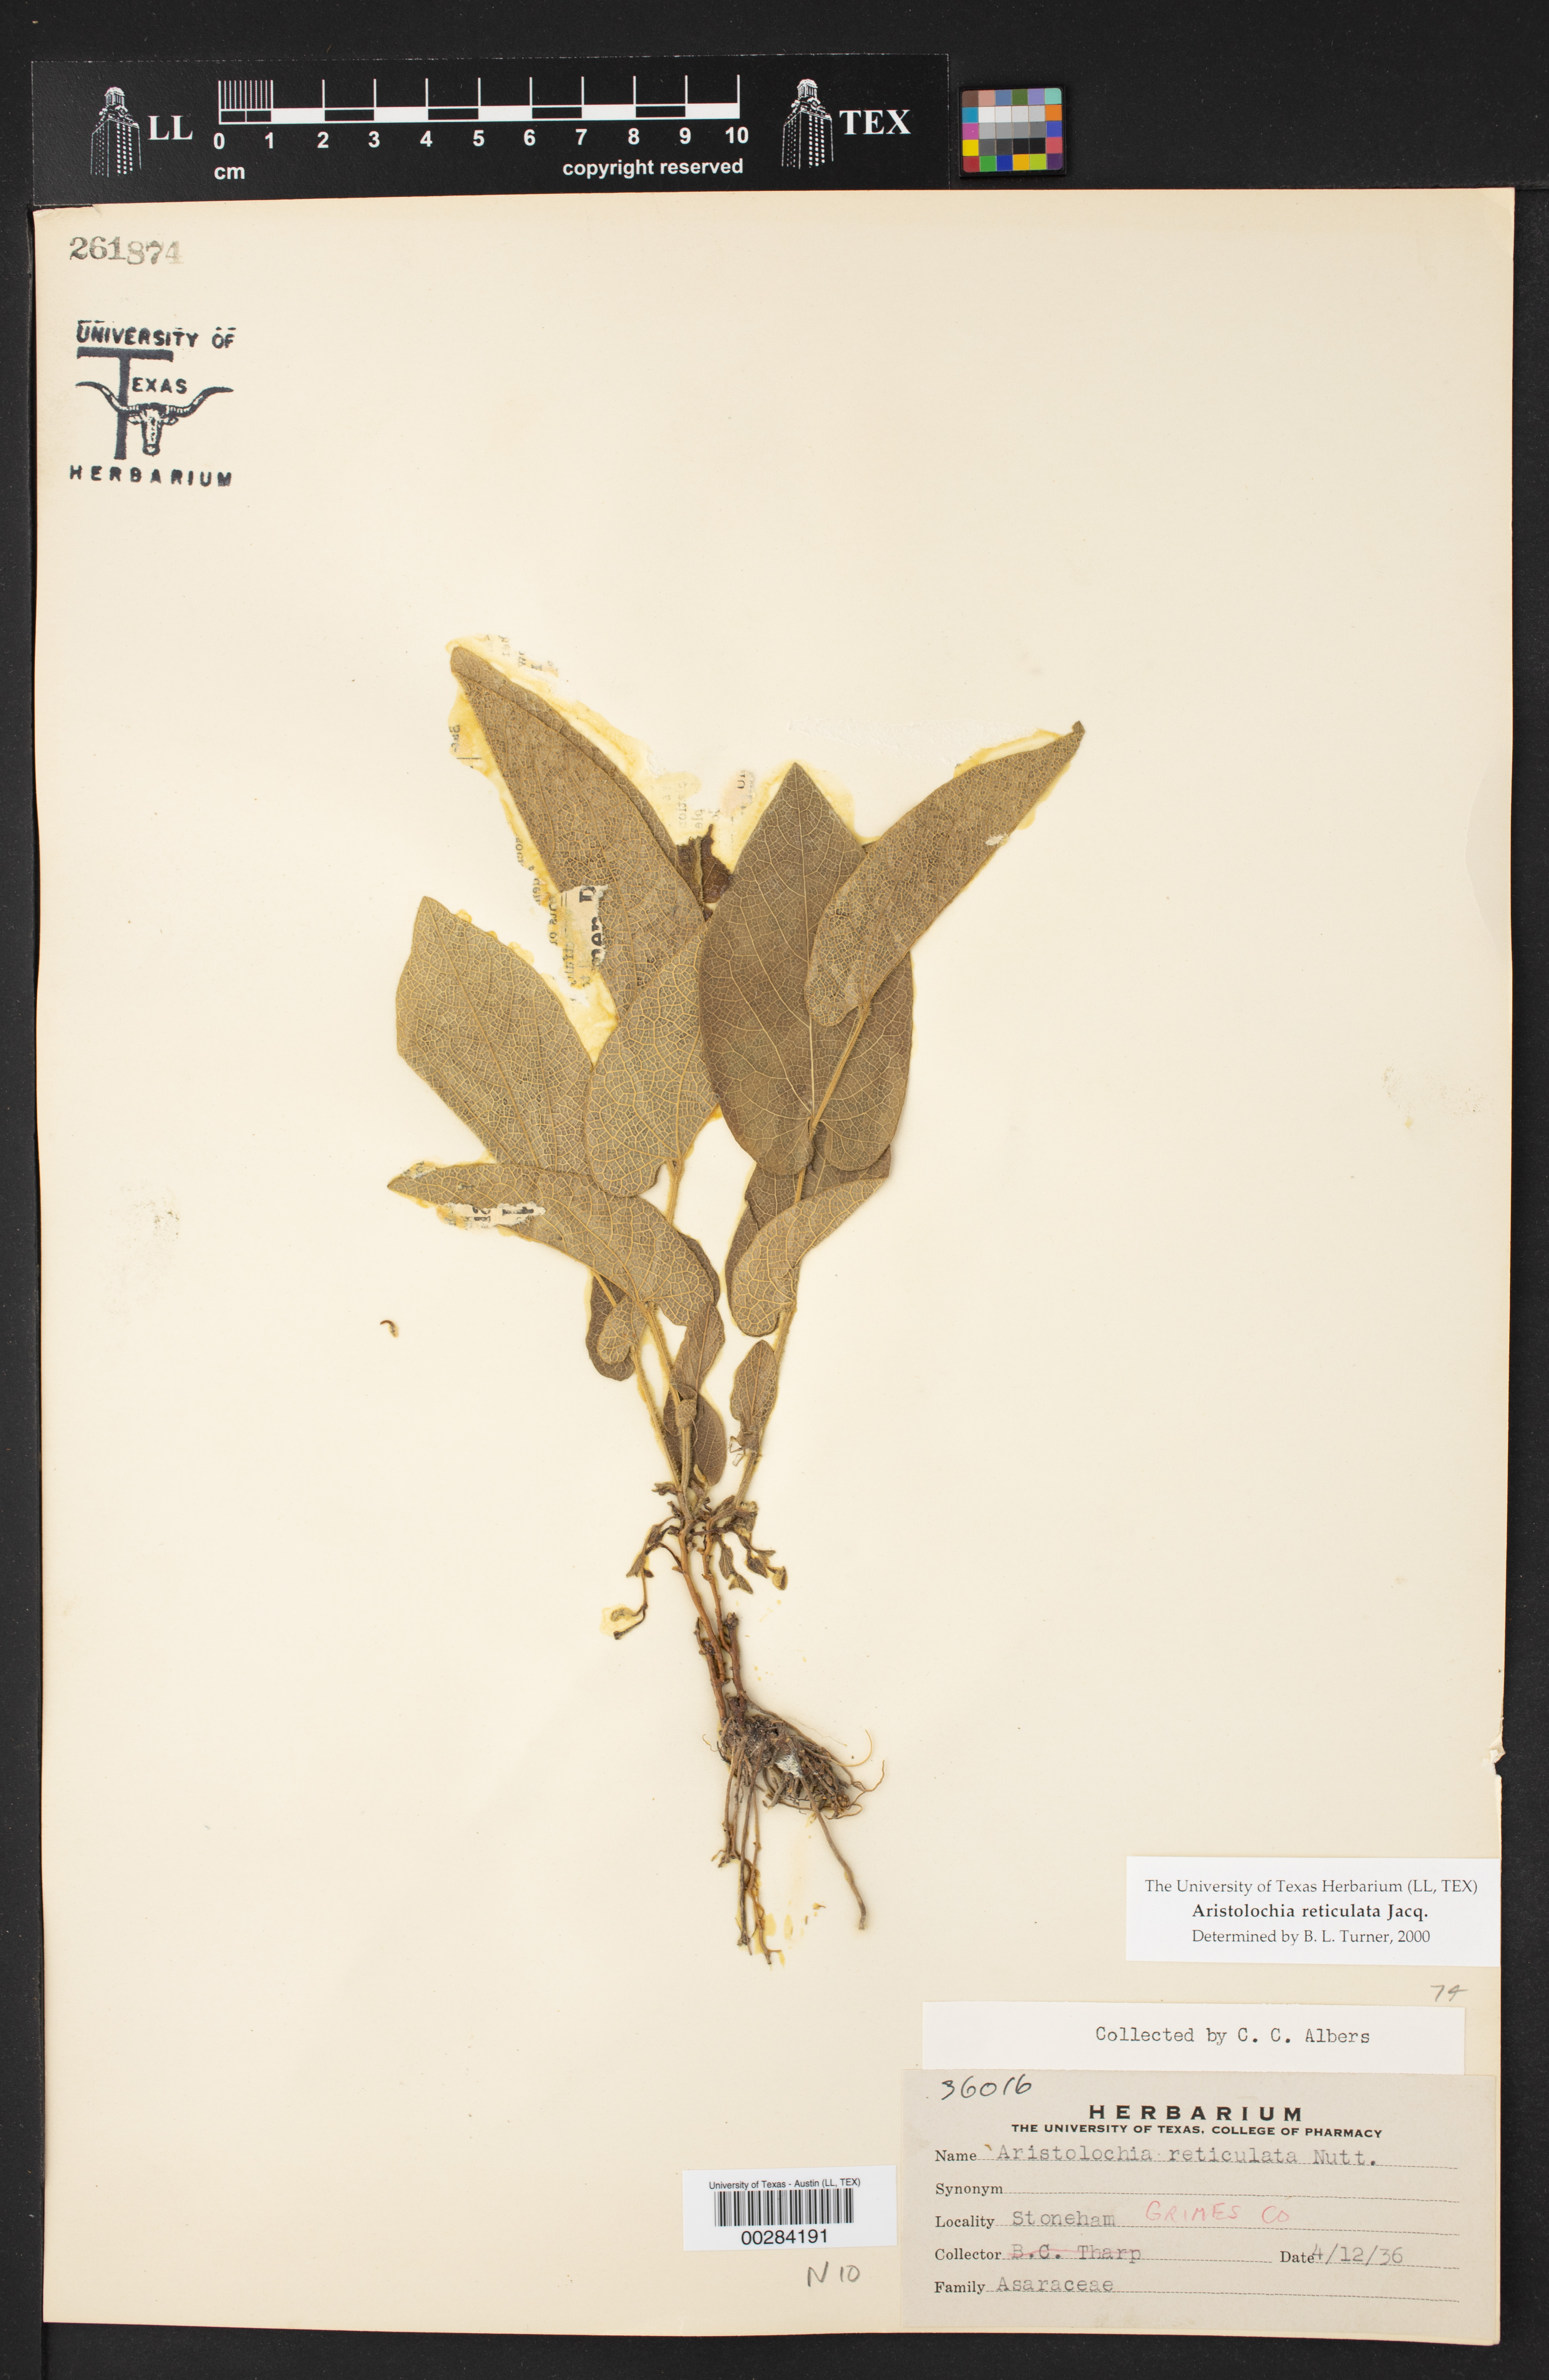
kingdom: Plantae
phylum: Tracheophyta
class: Magnoliopsida
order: Piperales
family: Aristolochiaceae
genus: Aristolochia
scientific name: Aristolochia
